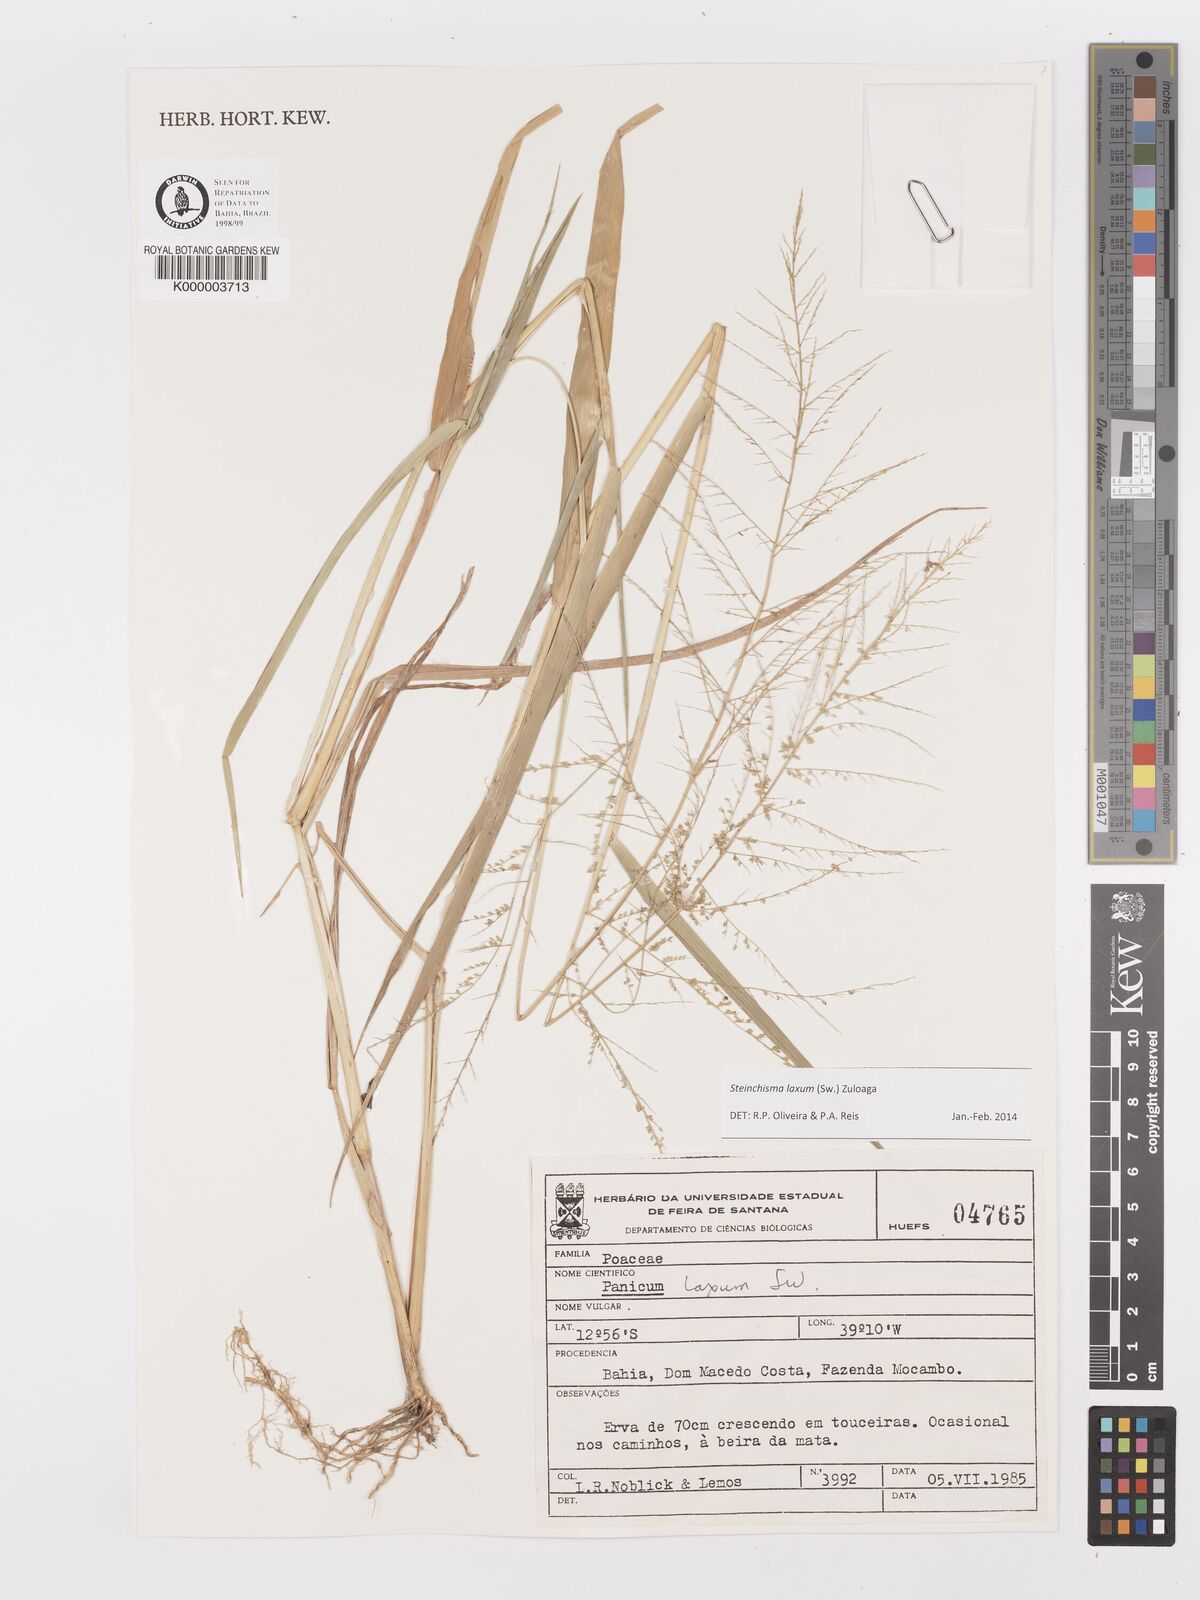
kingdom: Plantae
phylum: Tracheophyta
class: Liliopsida
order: Poales
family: Poaceae
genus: Panicum
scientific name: Panicum
